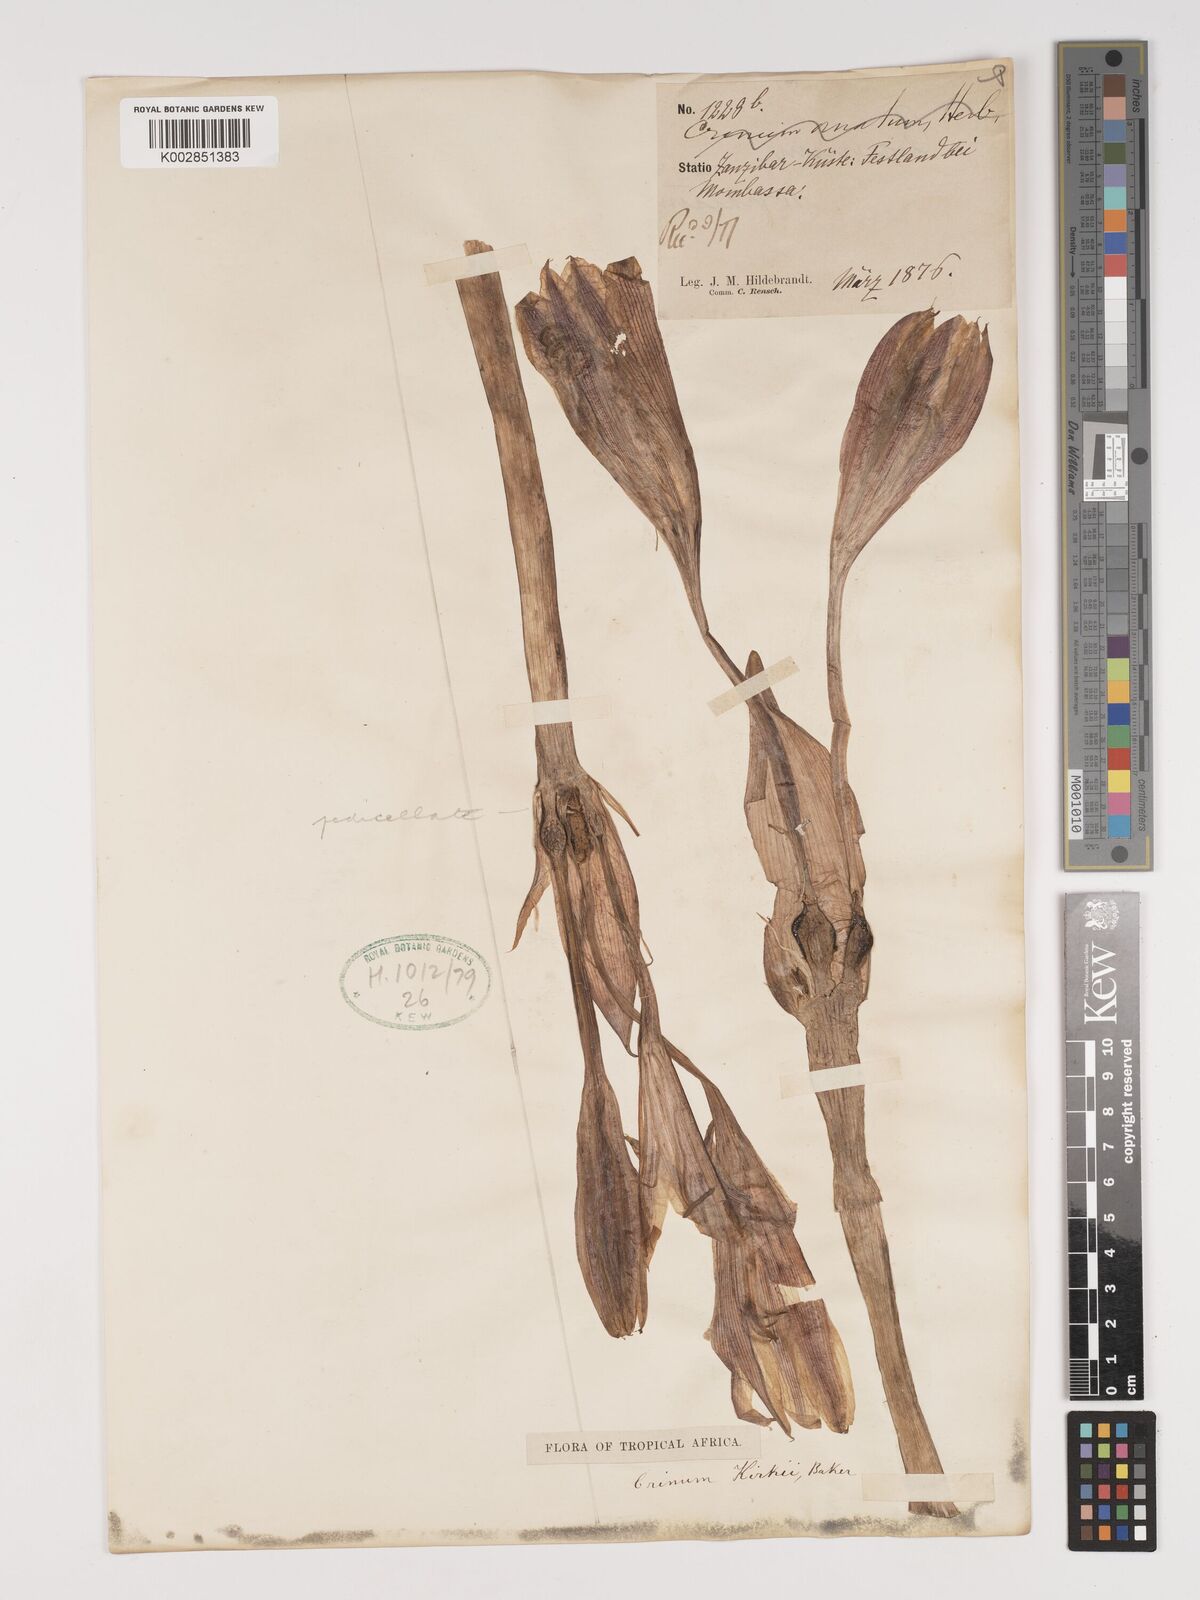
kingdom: Plantae
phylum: Tracheophyta
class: Liliopsida
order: Asparagales
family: Amaryllidaceae
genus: Crinum
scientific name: Crinum kirkii
